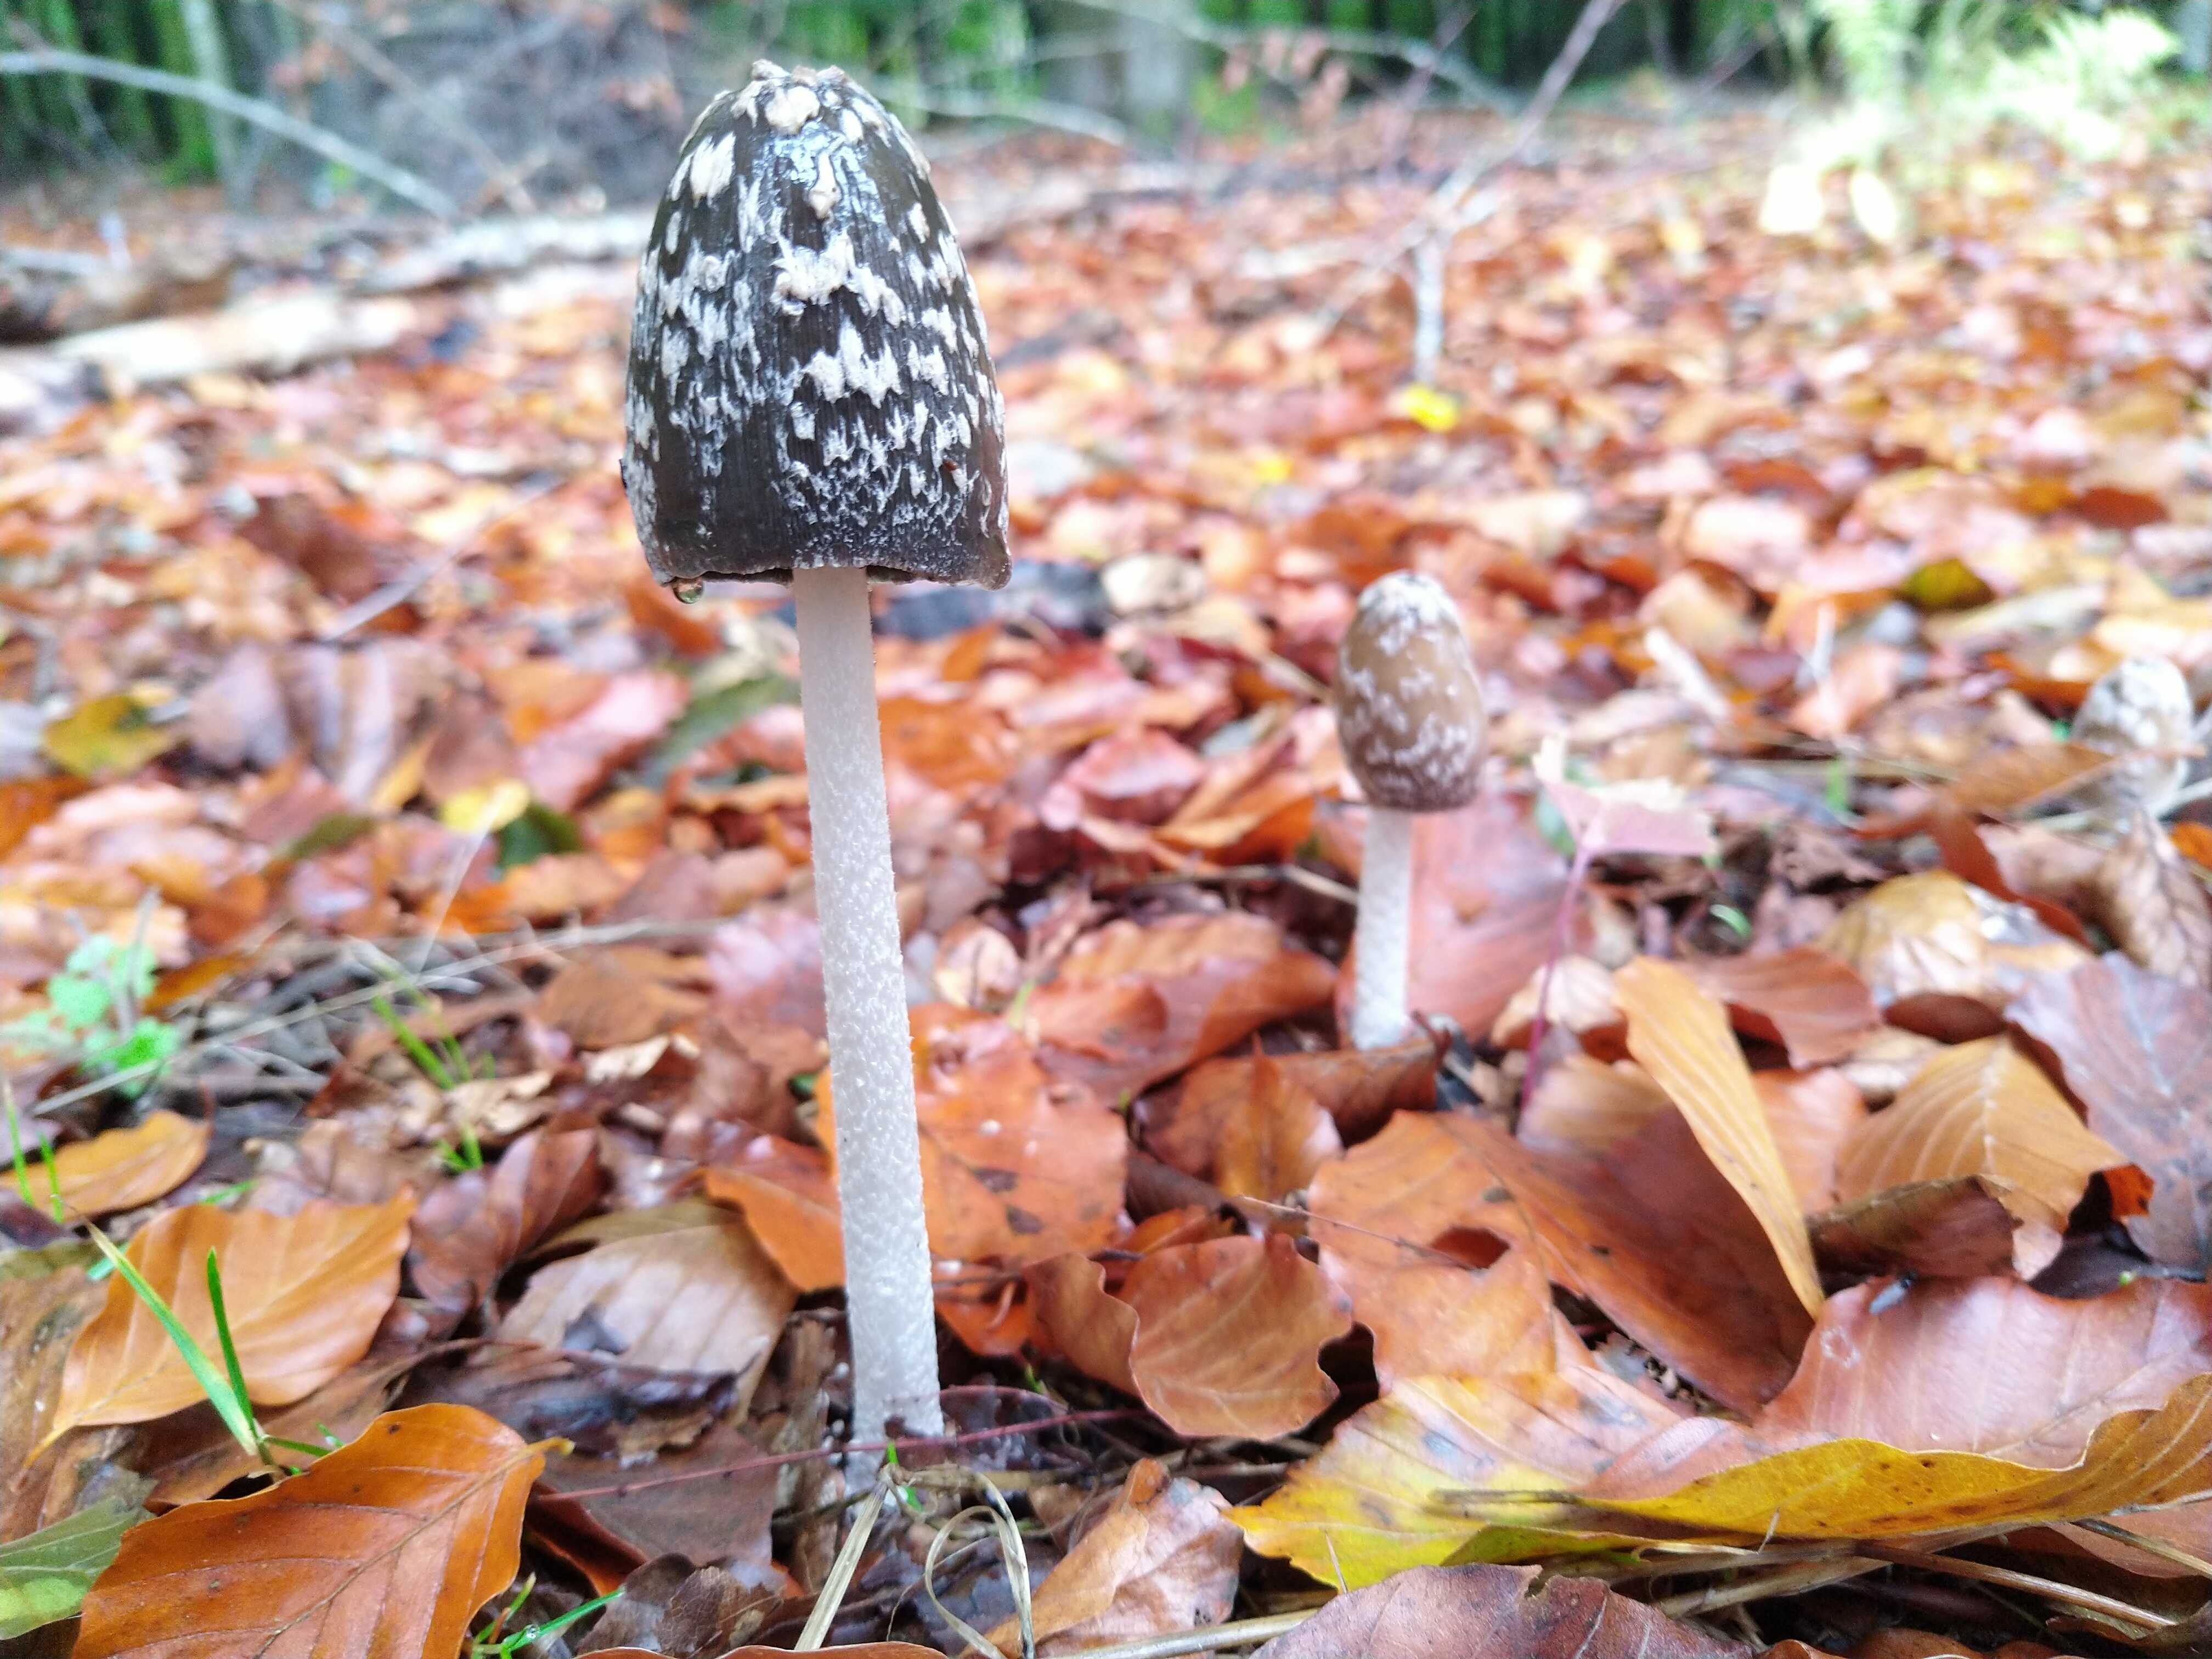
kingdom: Fungi
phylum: Basidiomycota
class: Agaricomycetes
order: Agaricales
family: Psathyrellaceae
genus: Coprinopsis
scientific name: Coprinopsis picacea
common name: skade-blækhat
